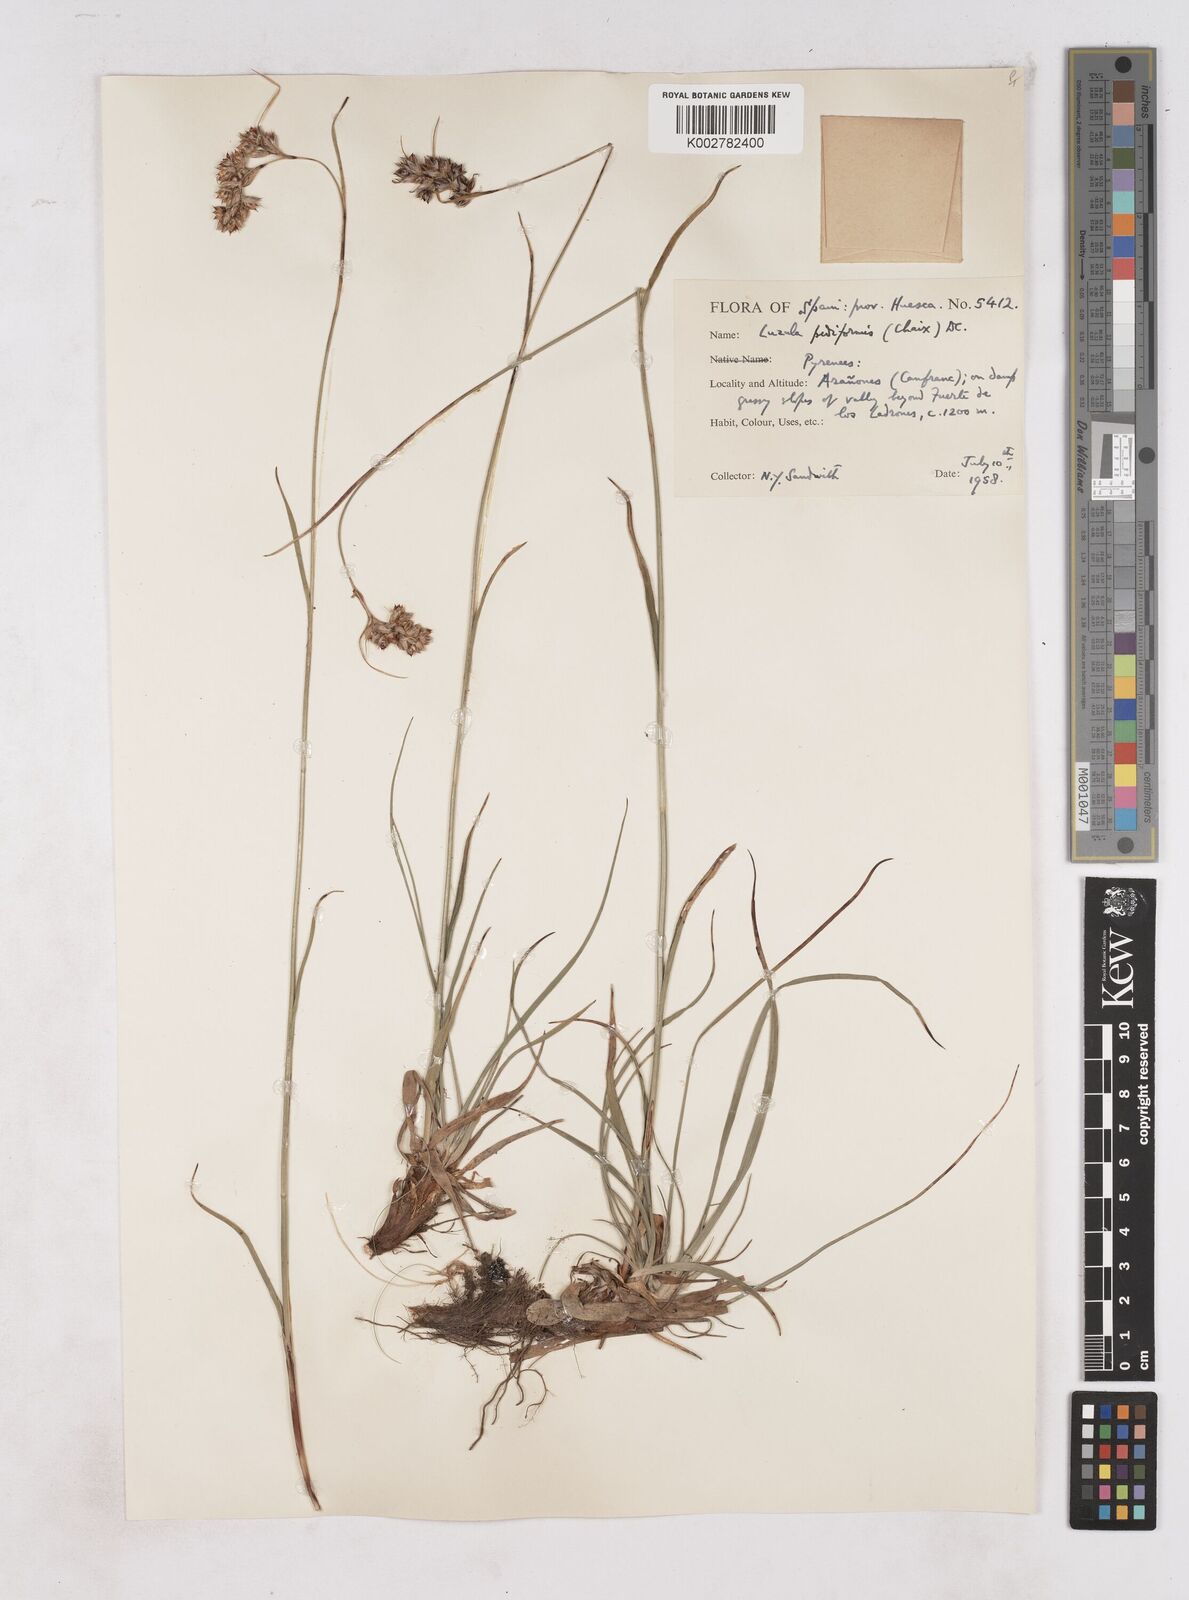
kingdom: Plantae
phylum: Tracheophyta
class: Liliopsida
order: Poales
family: Juncaceae
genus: Luzula
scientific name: Luzula pediformis
